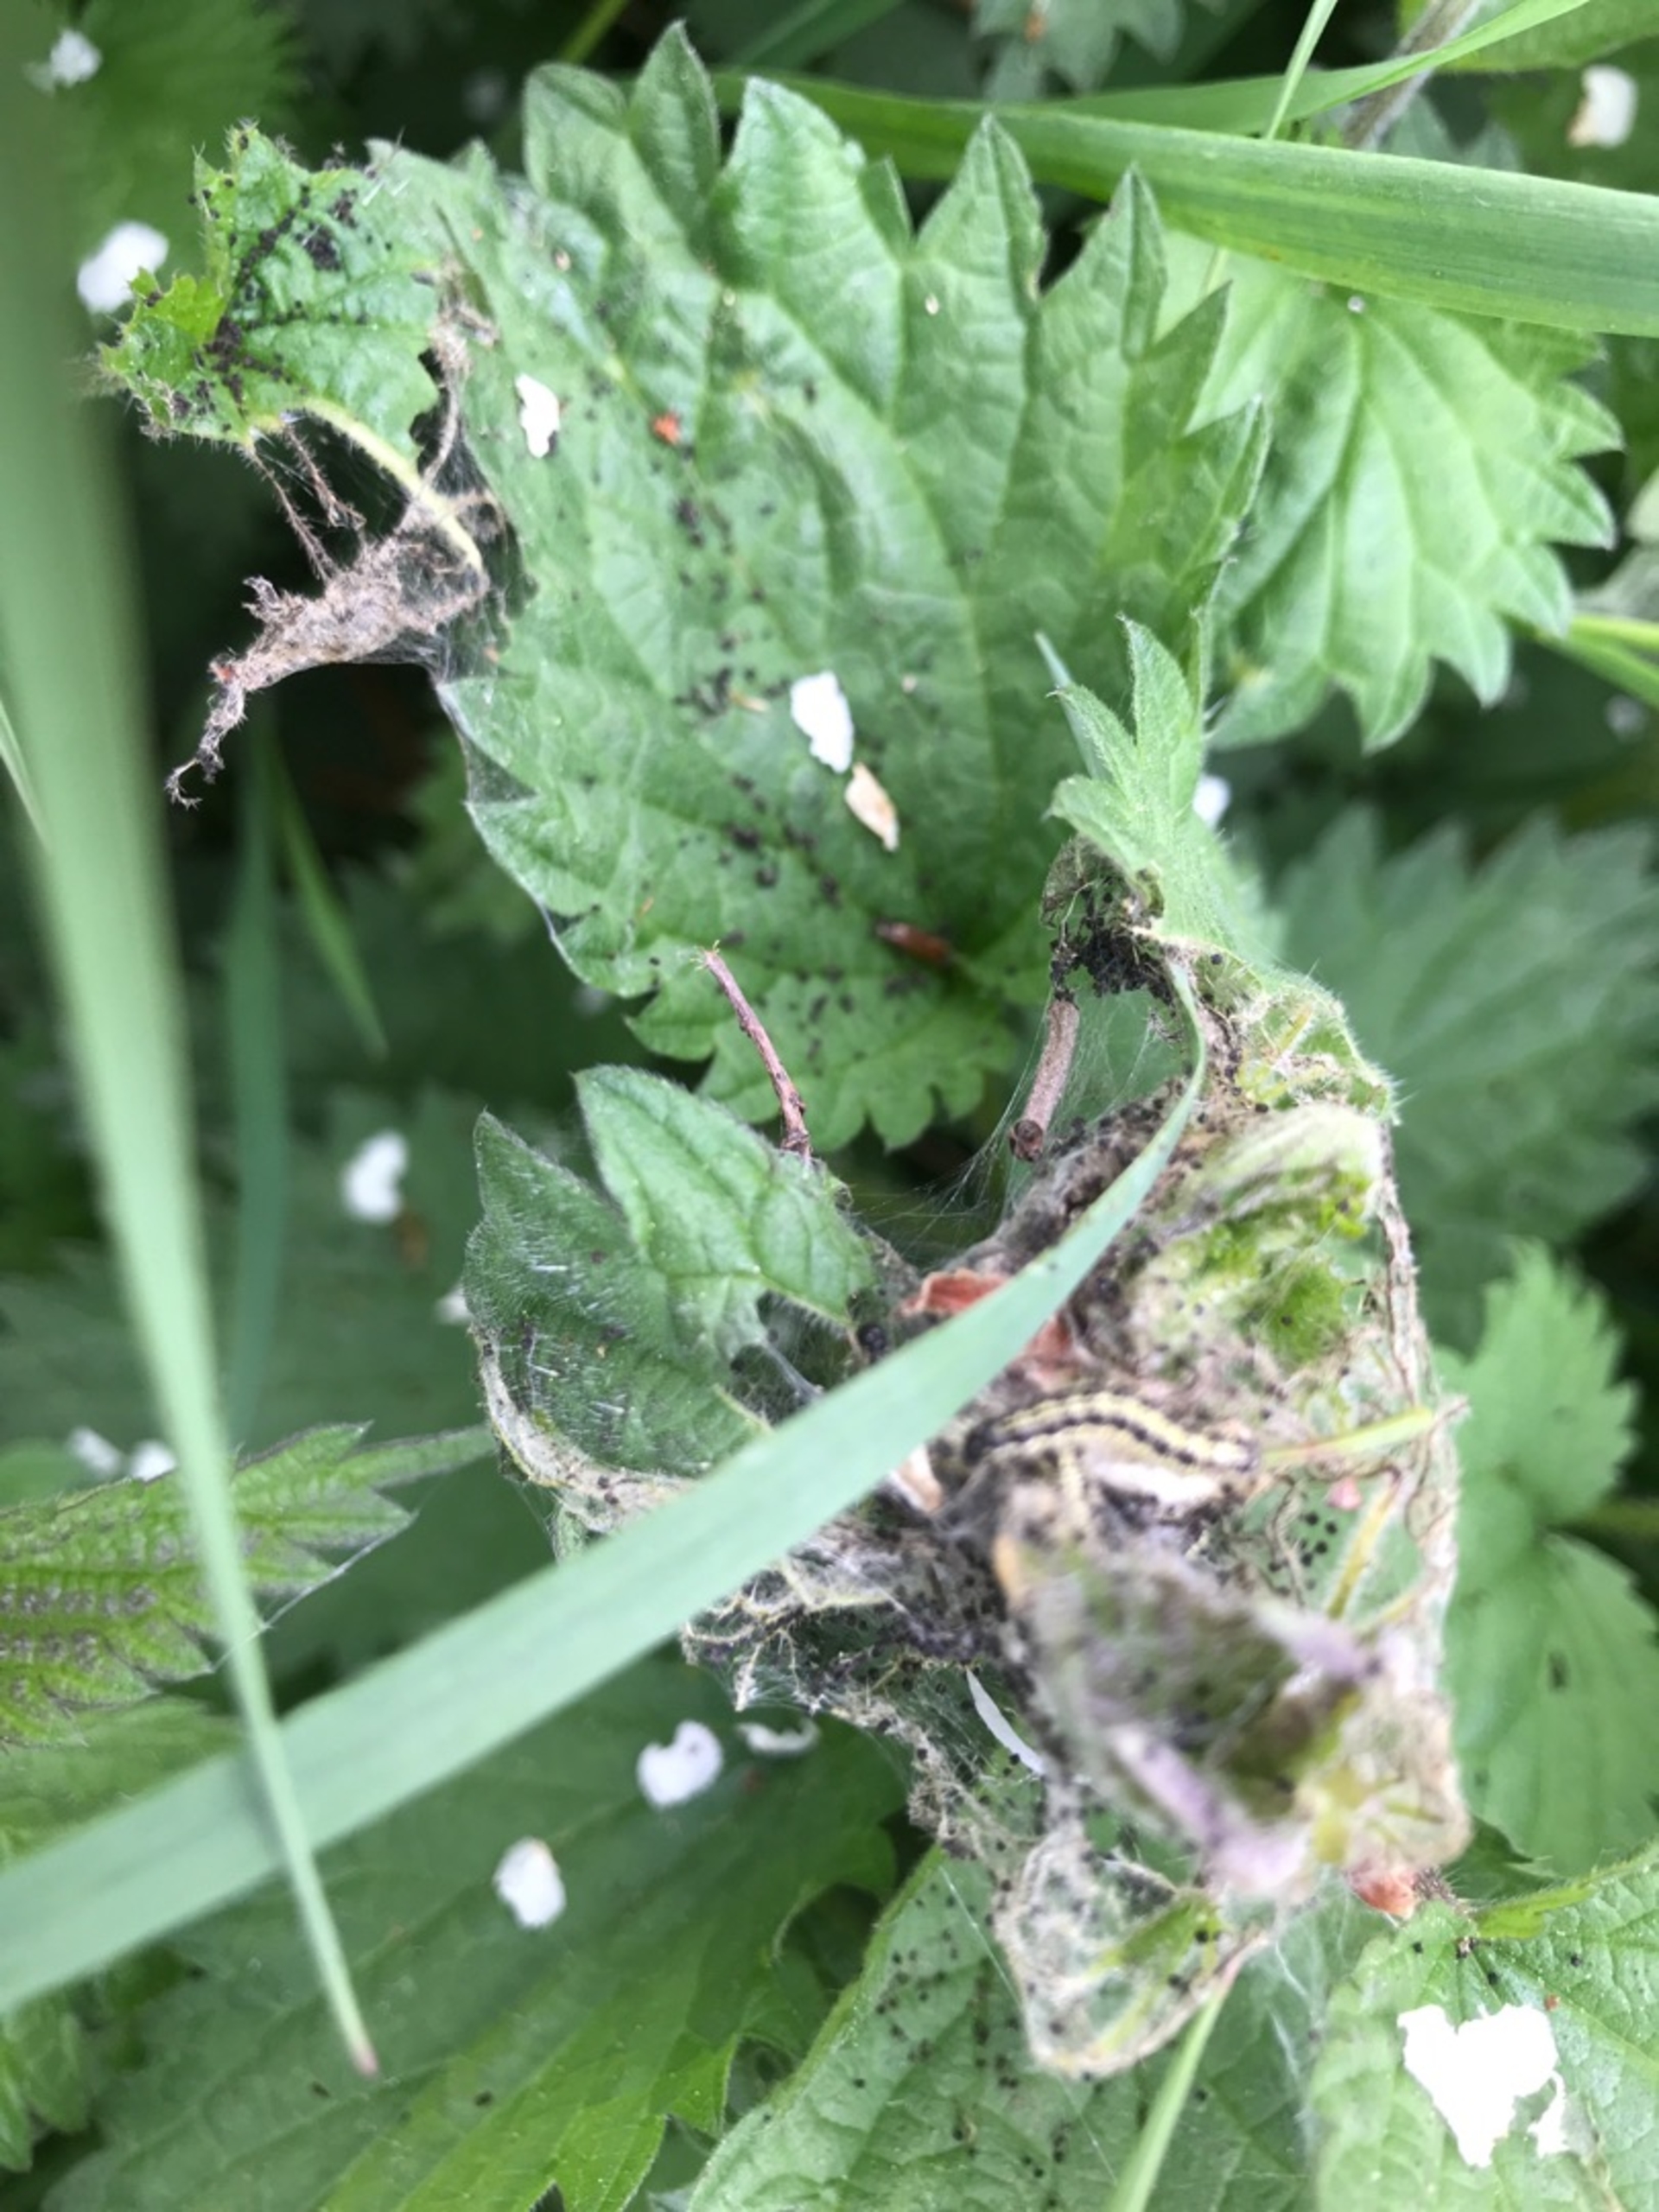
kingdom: Animalia
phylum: Arthropoda
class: Insecta
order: Lepidoptera
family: Nymphalidae
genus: Aglais
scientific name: Aglais urticae
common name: Nældens takvinge
